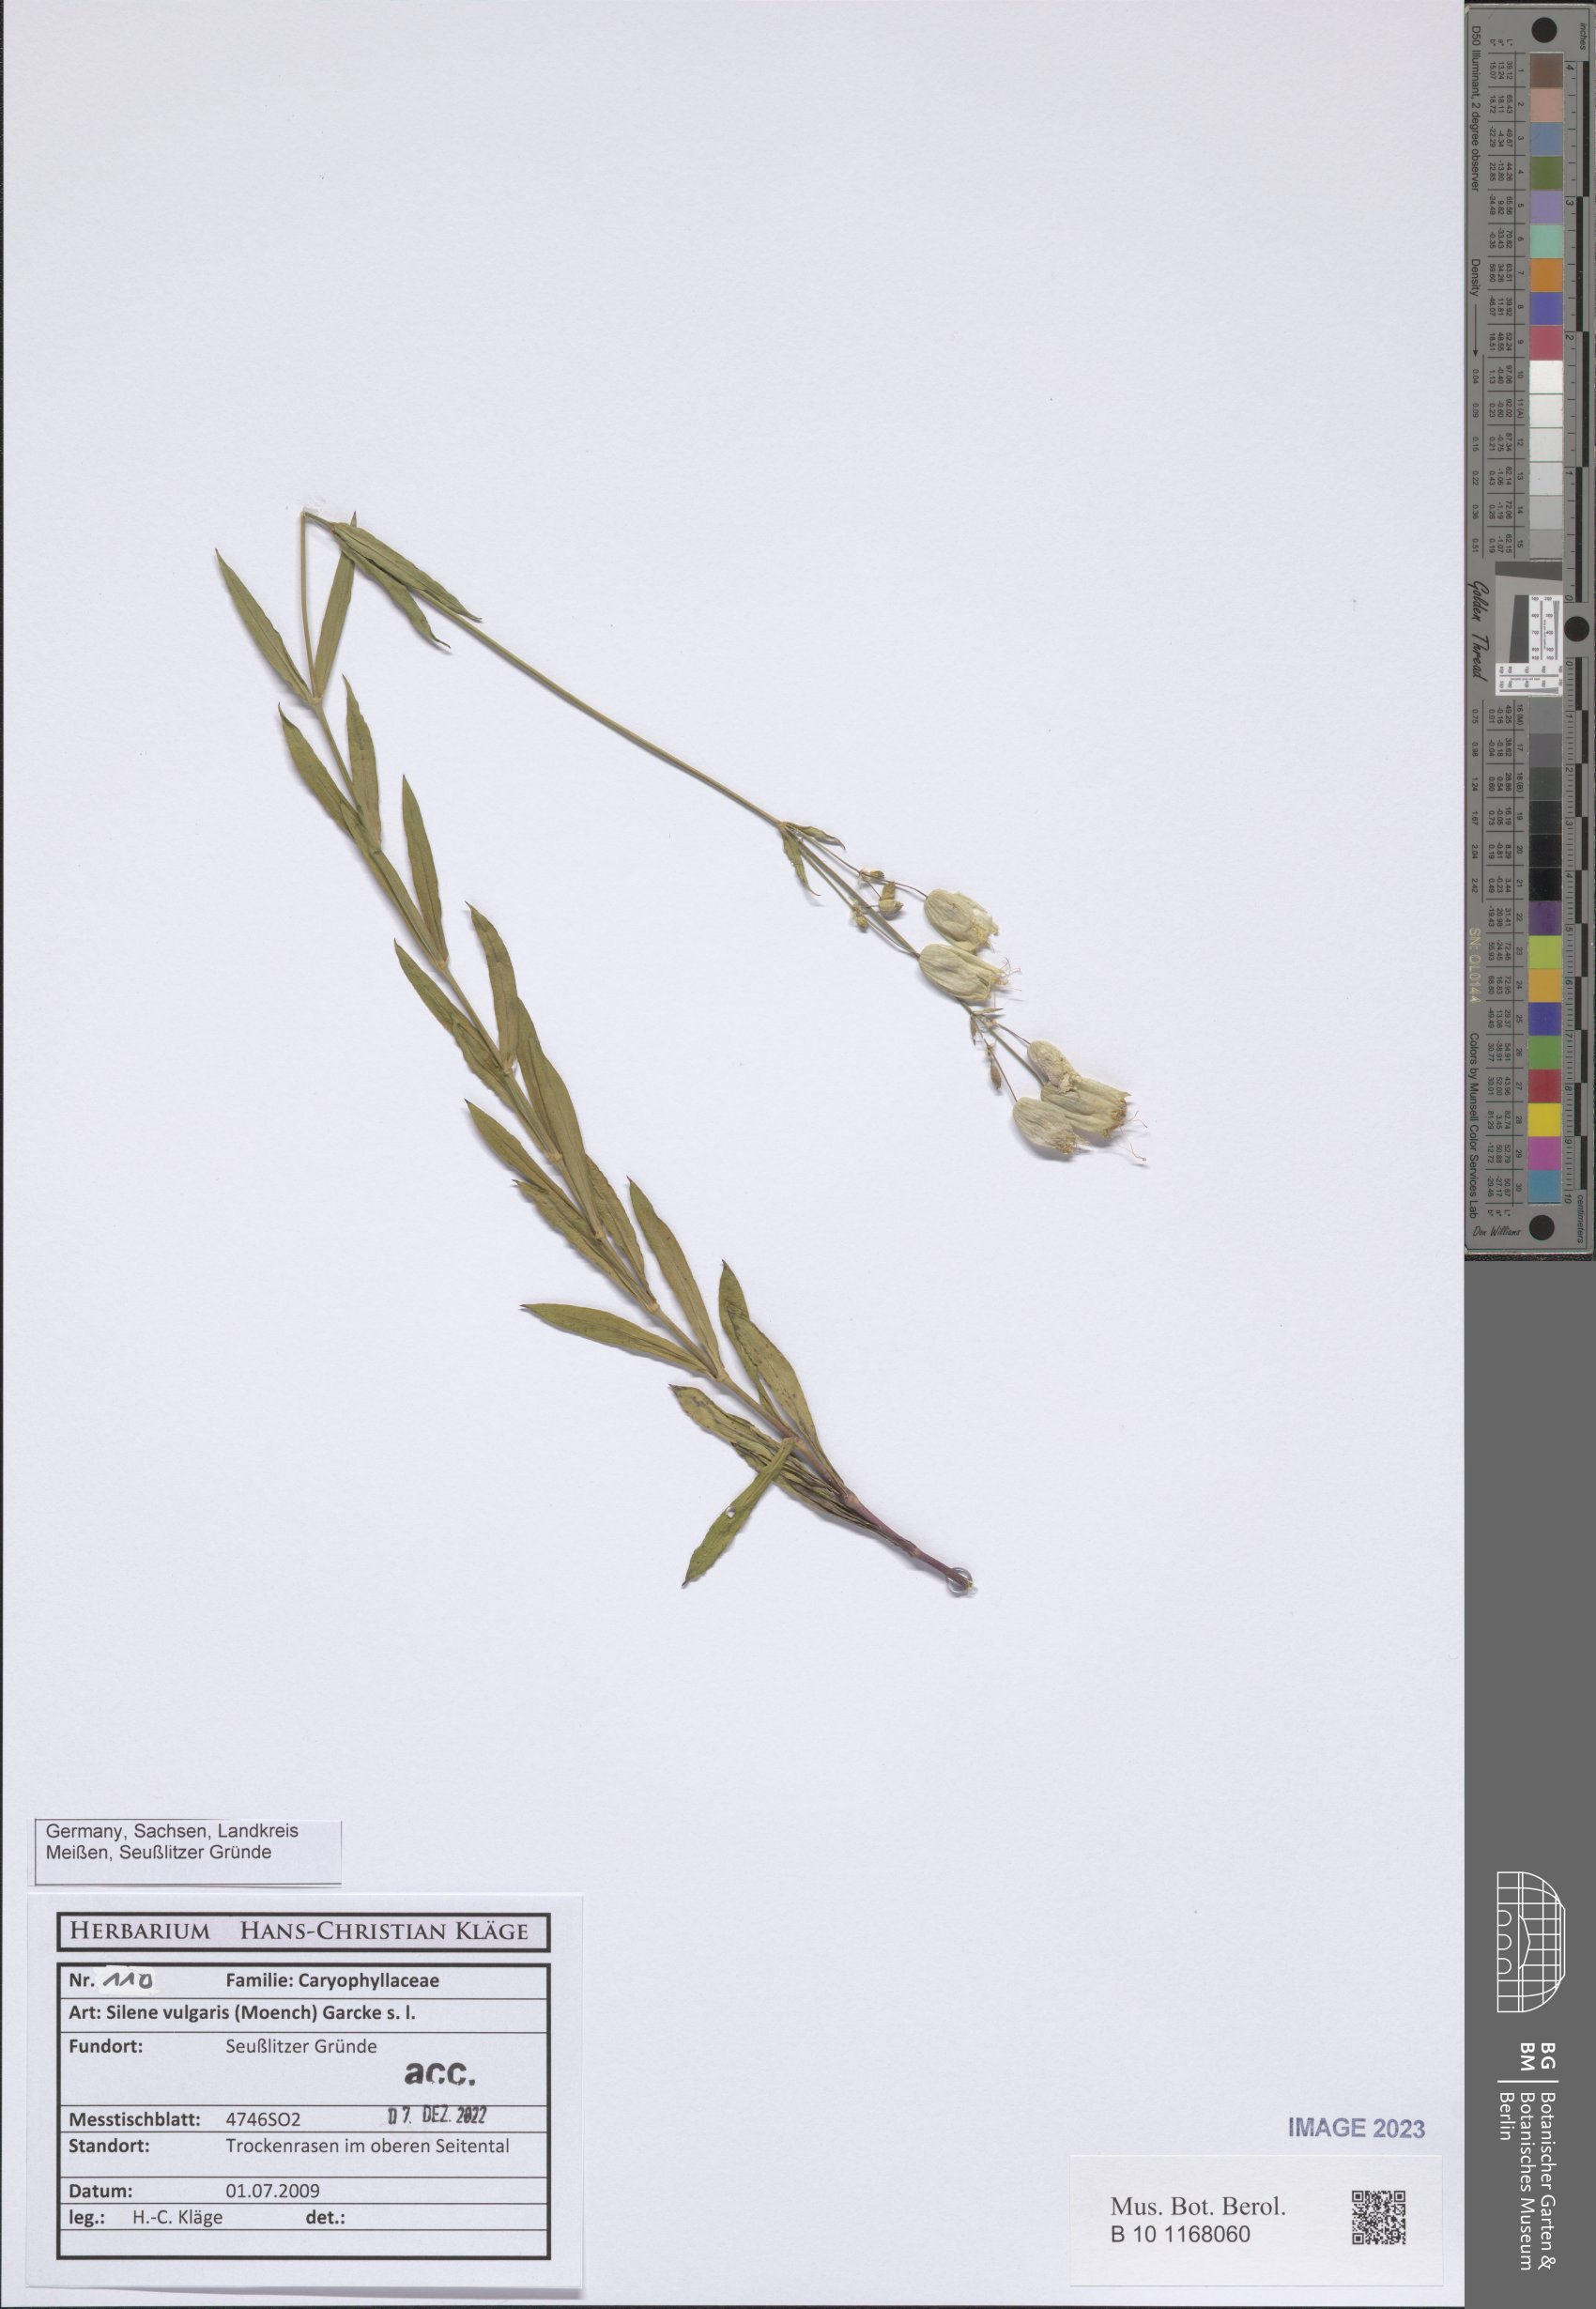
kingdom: Plantae
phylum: Tracheophyta
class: Magnoliopsida
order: Caryophyllales
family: Caryophyllaceae
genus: Silene
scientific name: Silene vulgaris
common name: Bladder campion
